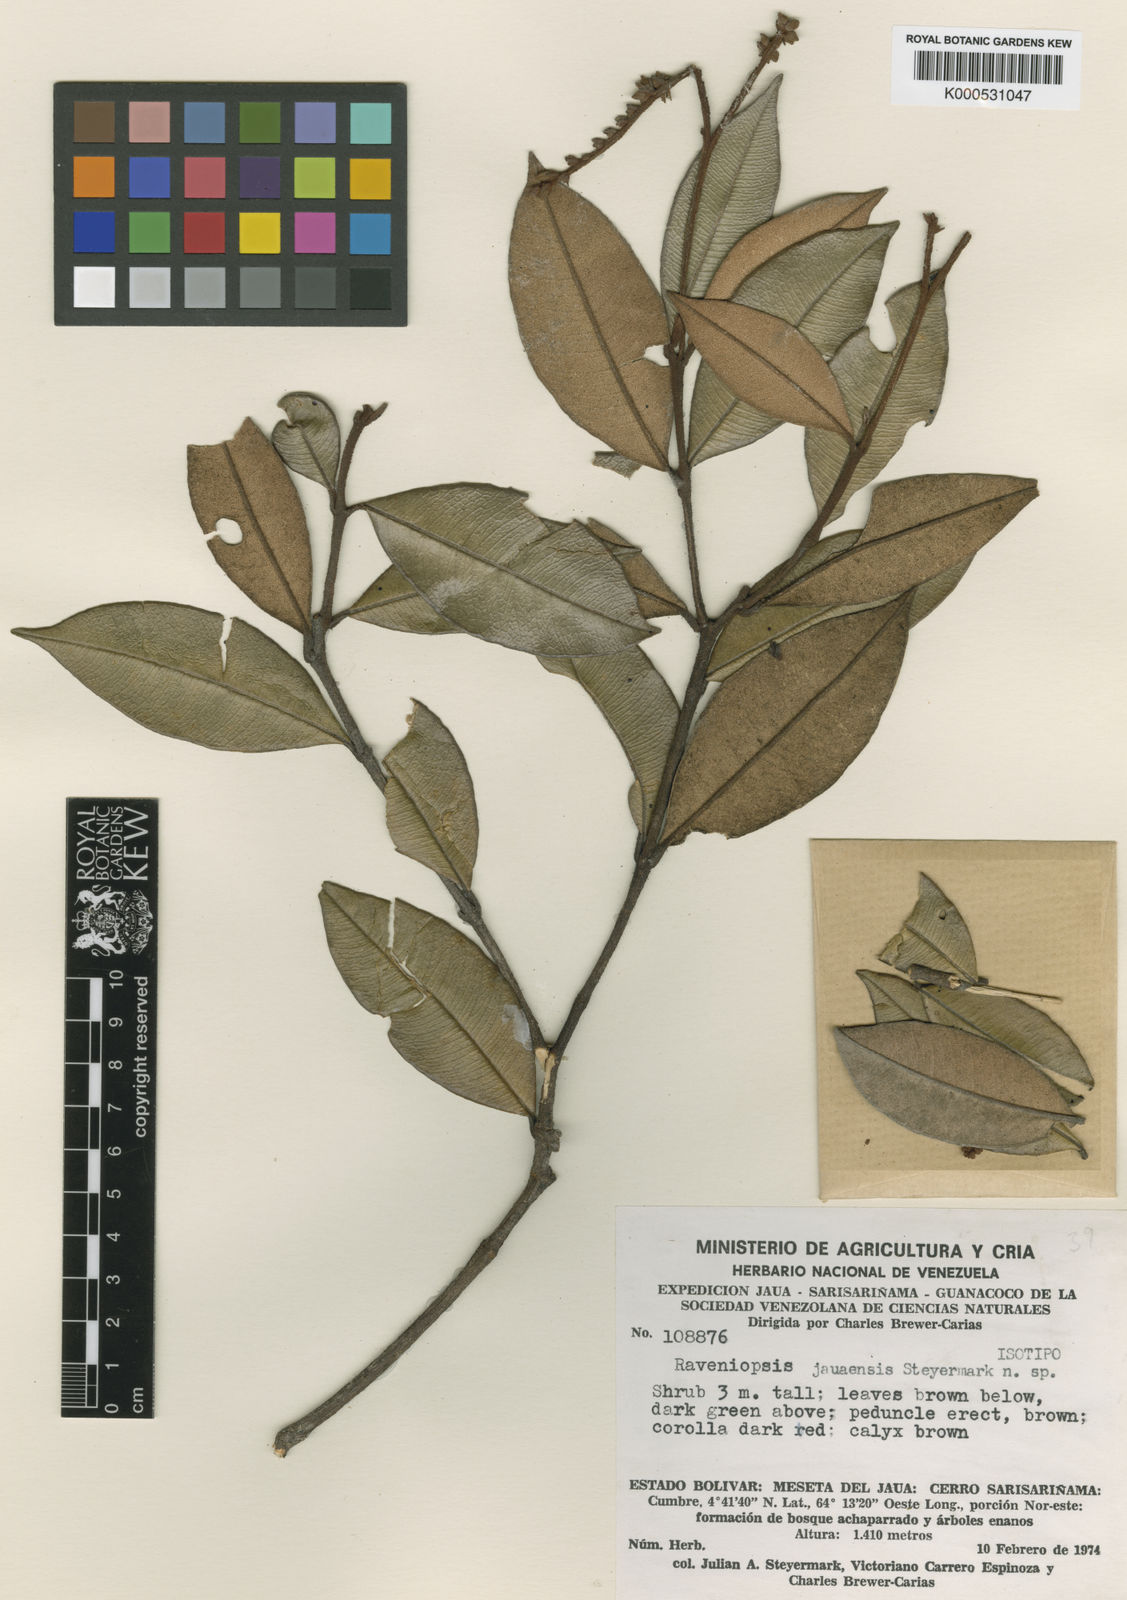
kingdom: Plantae
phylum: Tracheophyta
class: Magnoliopsida
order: Sapindales
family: Rutaceae
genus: Raveniopsis
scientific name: Raveniopsis jauaensis
